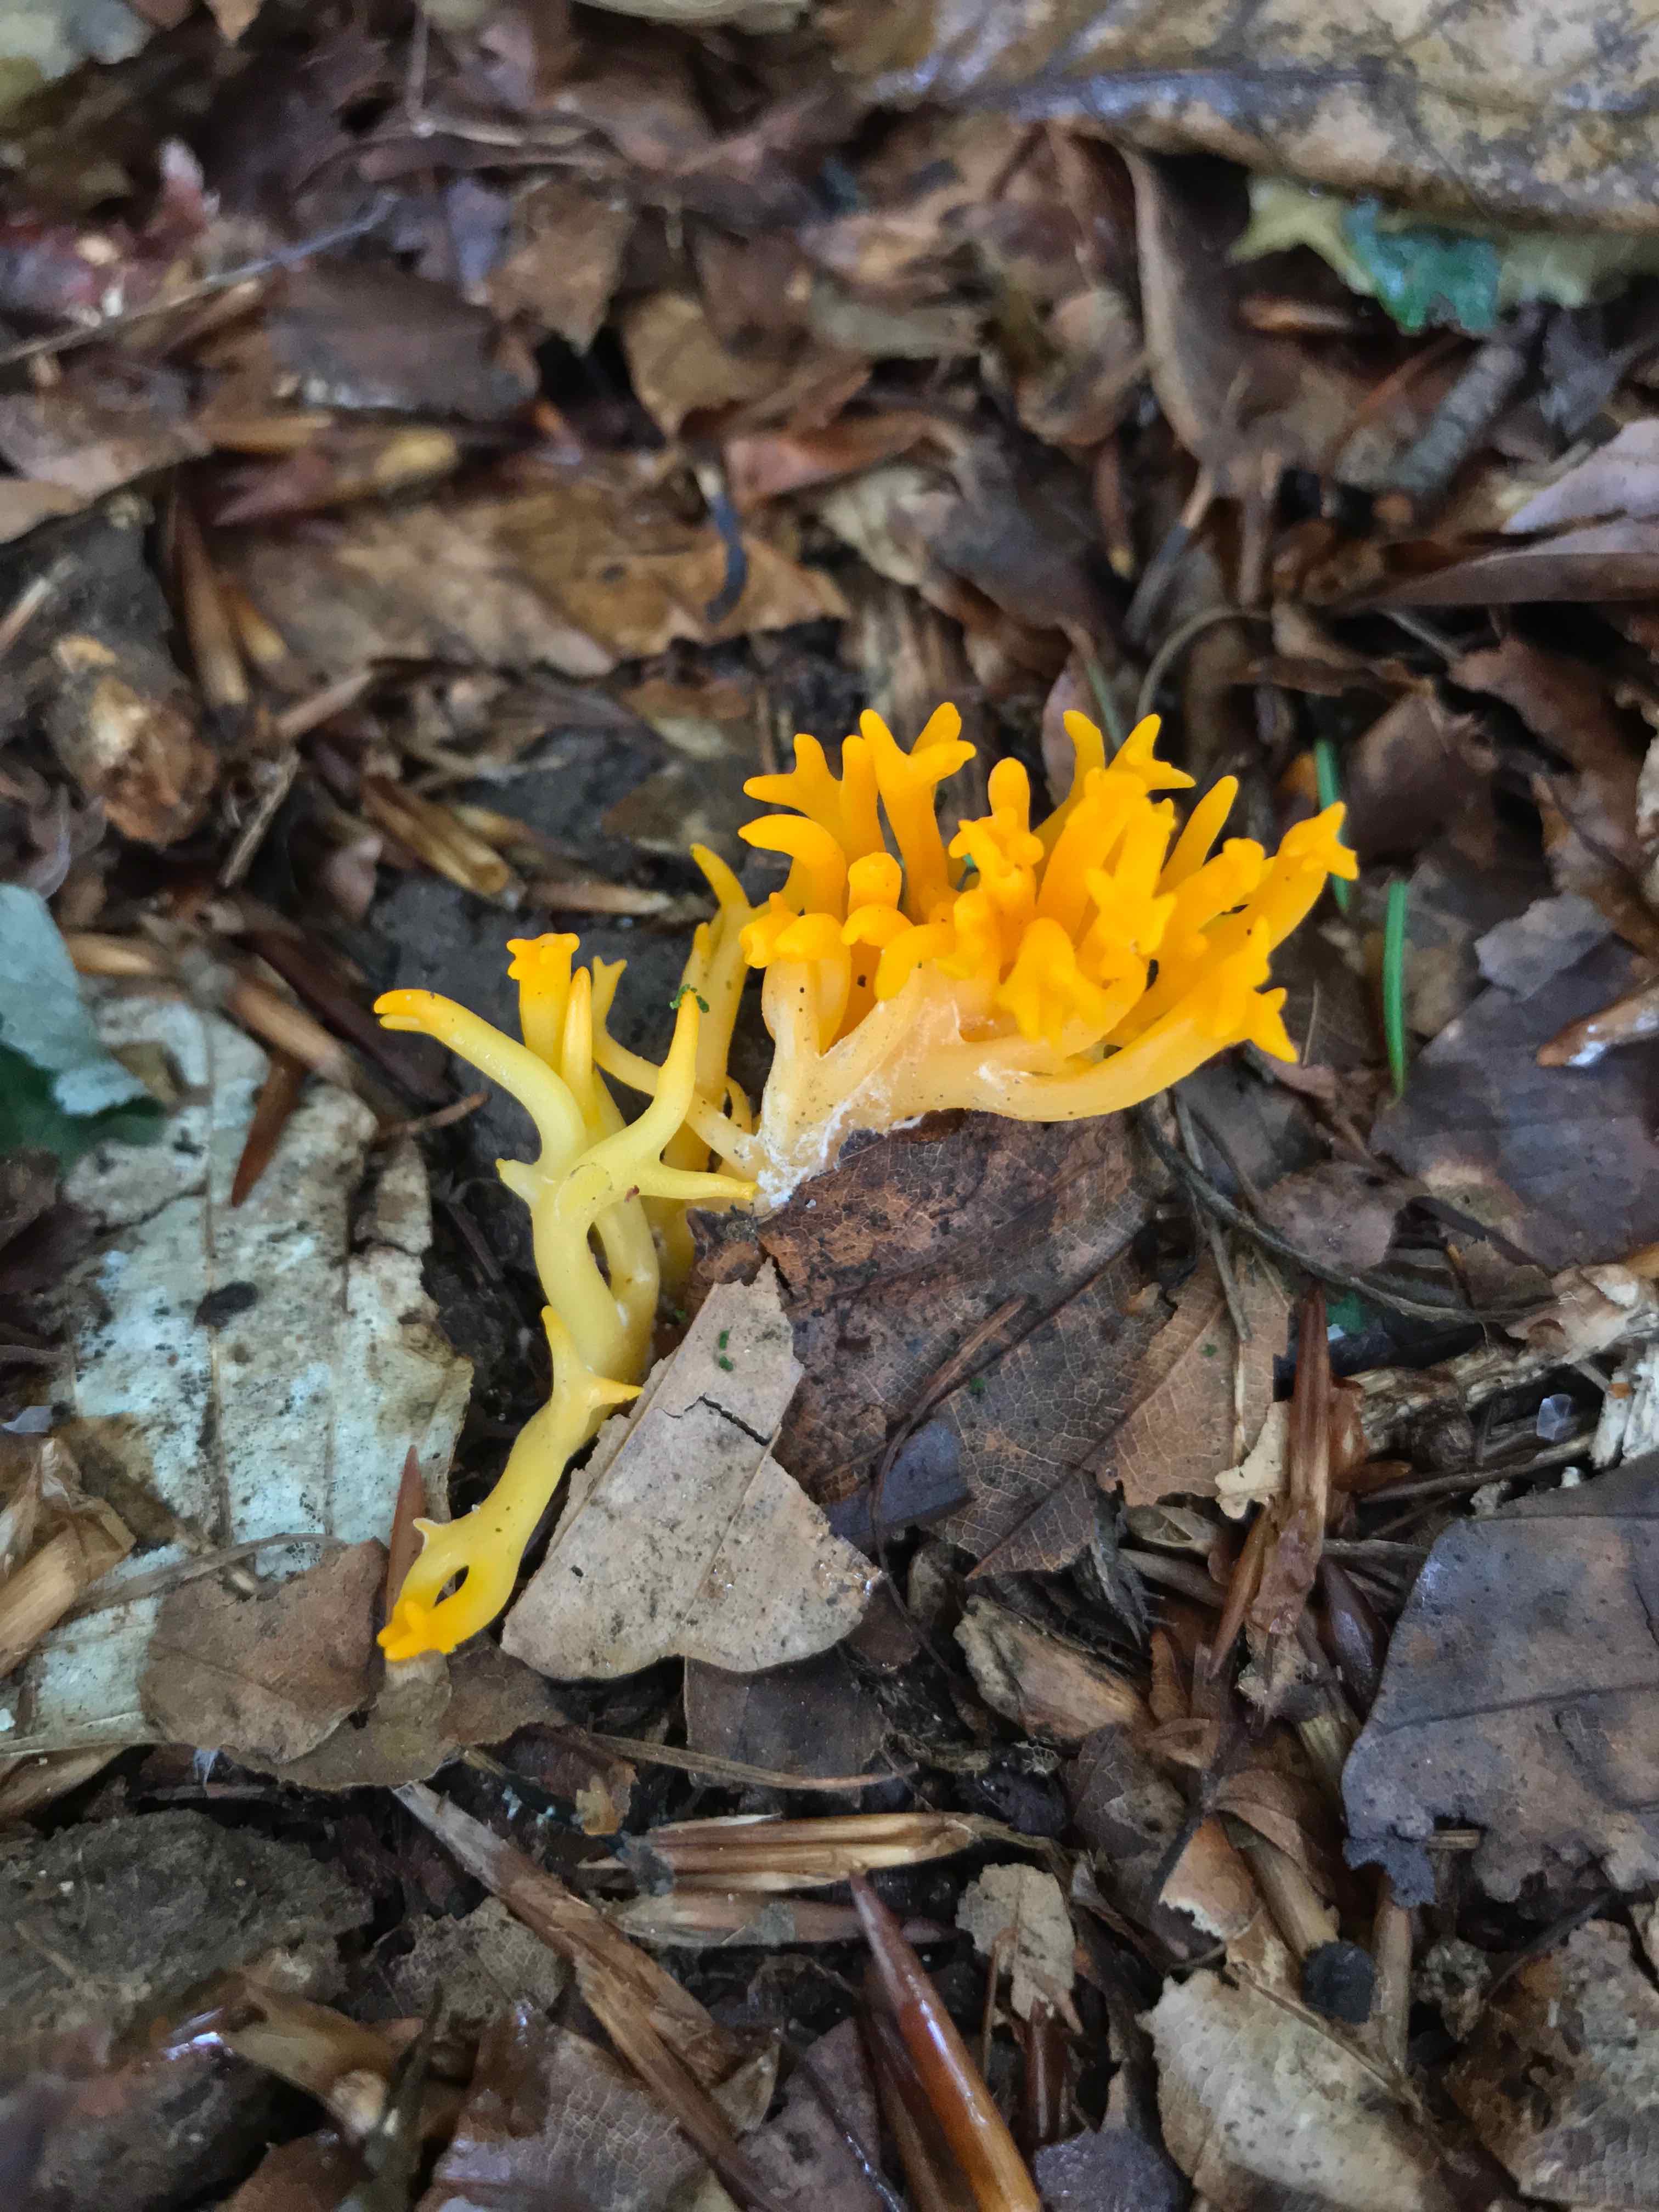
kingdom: Fungi
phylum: Basidiomycota
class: Dacrymycetes
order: Dacrymycetales
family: Dacrymycetaceae
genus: Calocera
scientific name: Calocera viscosa
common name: almindelig guldgaffel
